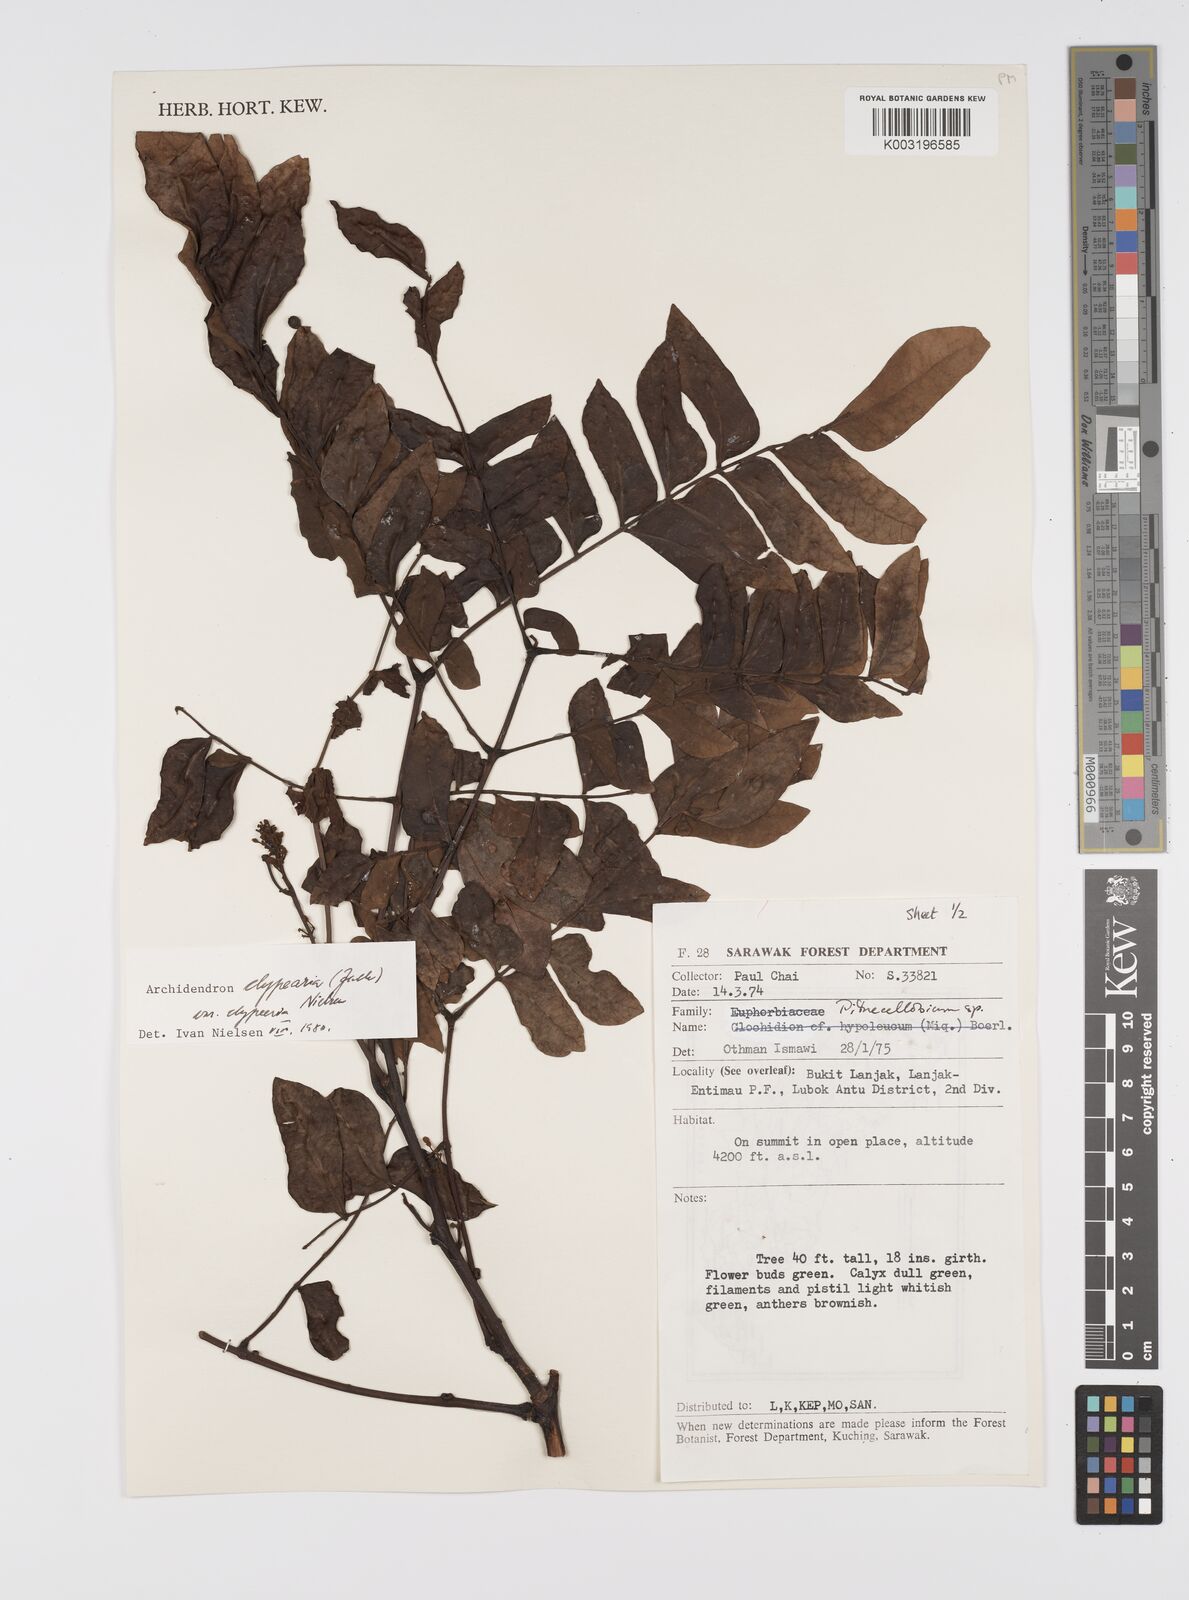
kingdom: Plantae
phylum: Tracheophyta
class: Magnoliopsida
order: Fabales
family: Fabaceae
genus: Archidendron
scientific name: Archidendron clypearia
